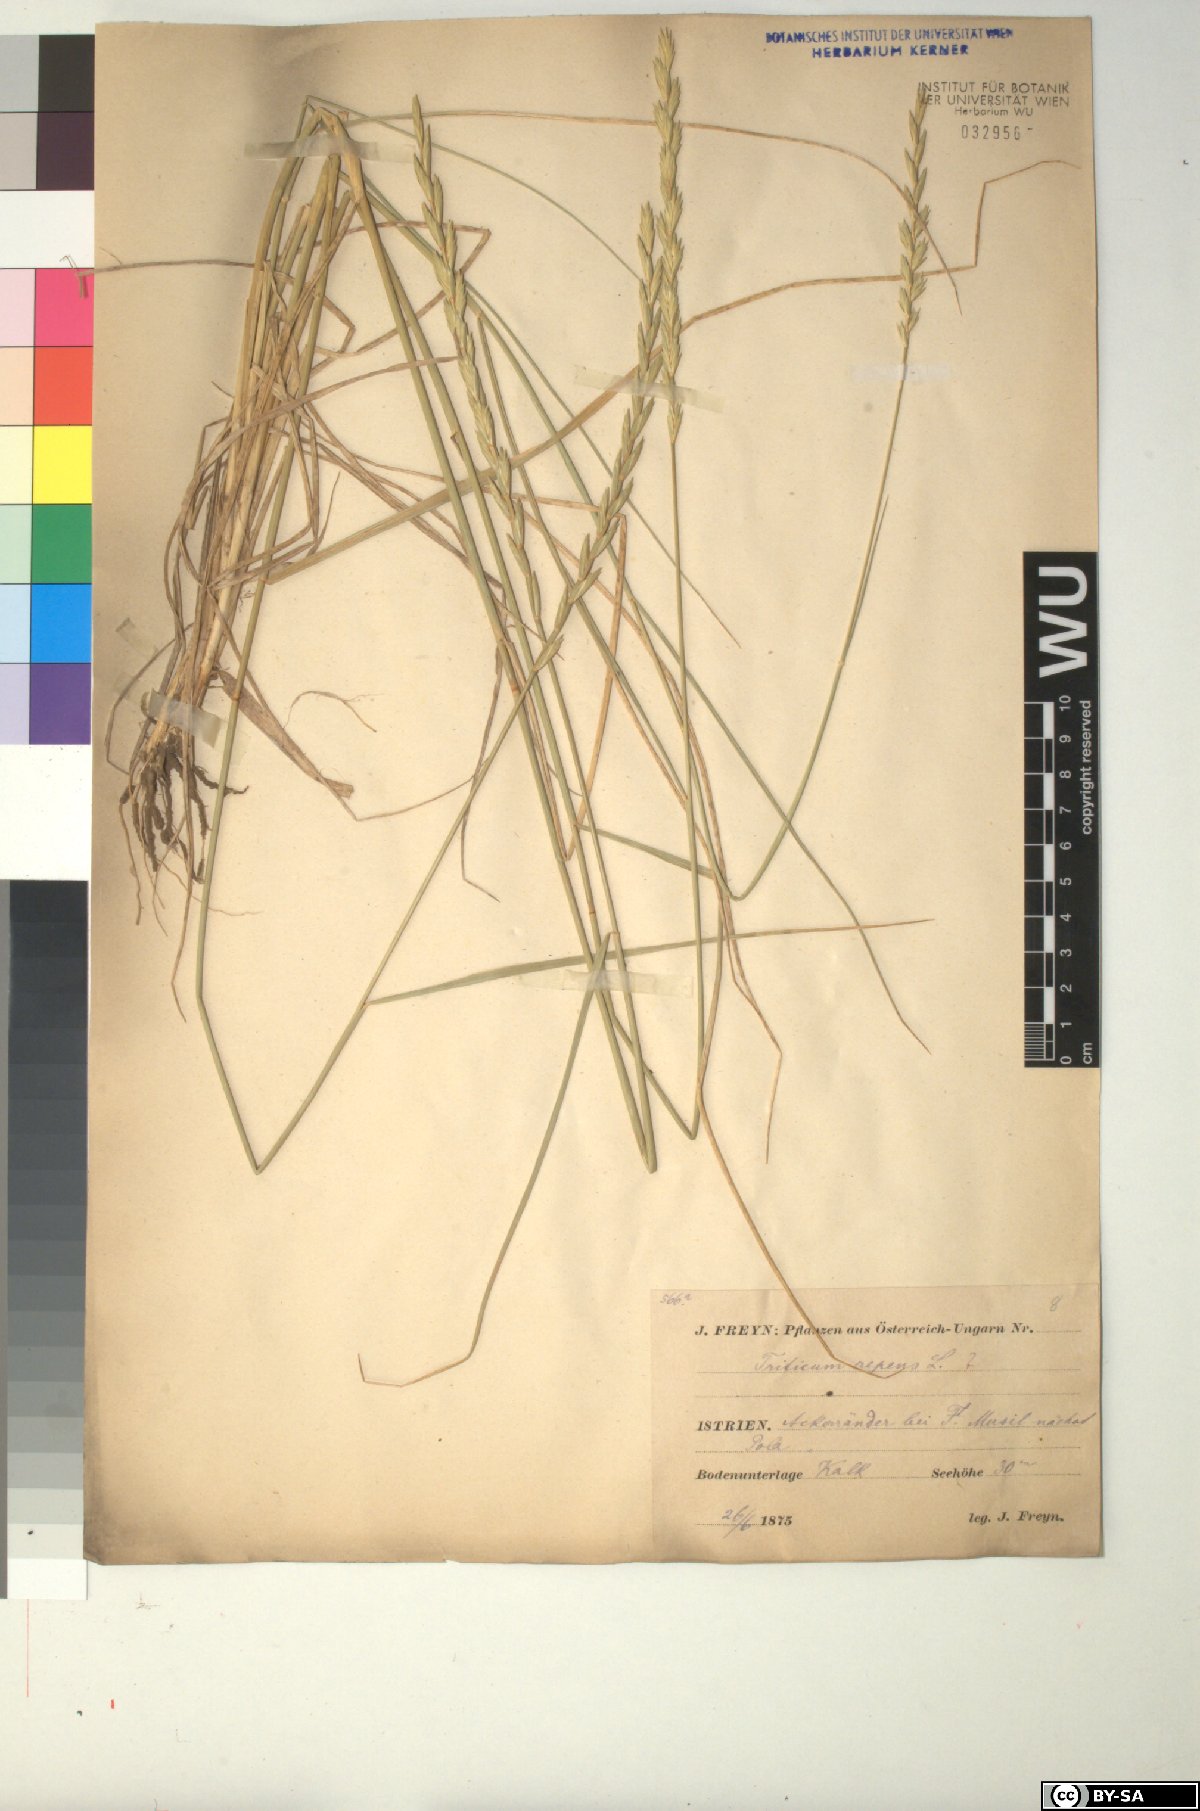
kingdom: Plantae
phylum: Tracheophyta
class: Liliopsida
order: Poales
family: Poaceae
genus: Elymus
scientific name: Elymus repens
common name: Quackgrass
